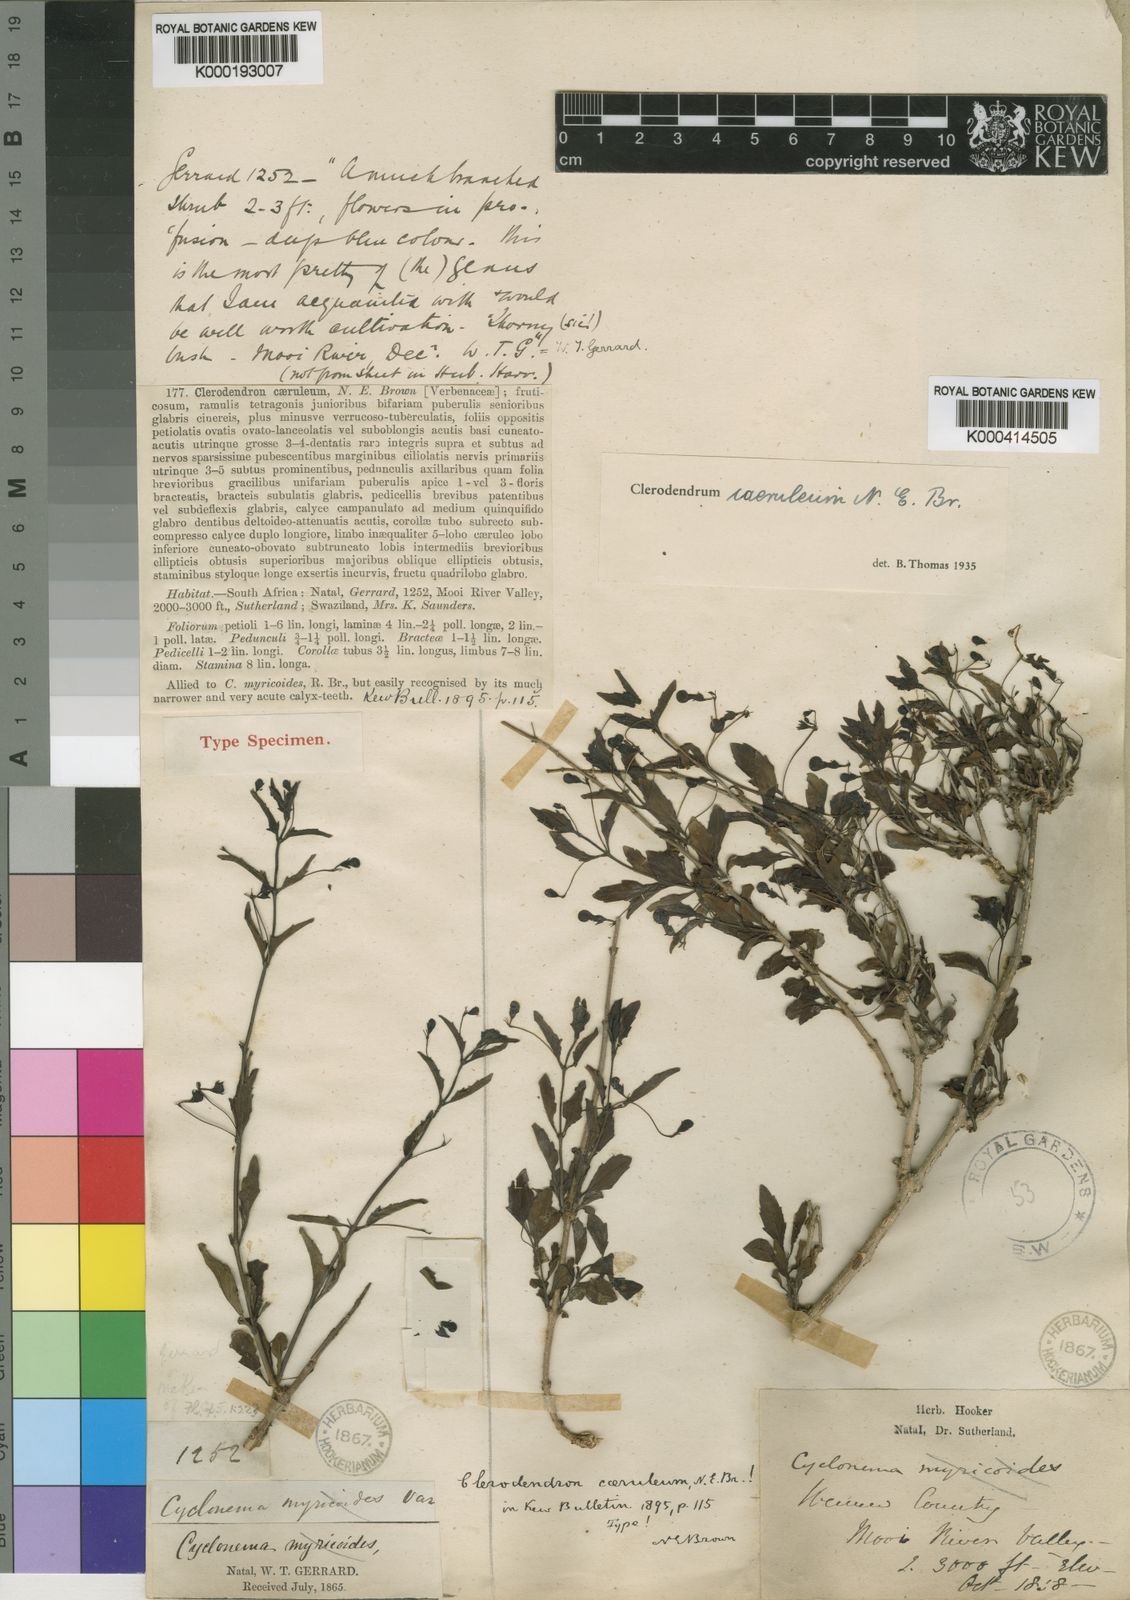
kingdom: Plantae
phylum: Tracheophyta
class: Magnoliopsida
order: Lamiales
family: Lamiaceae
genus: Clerodendrum
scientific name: Clerodendrum
